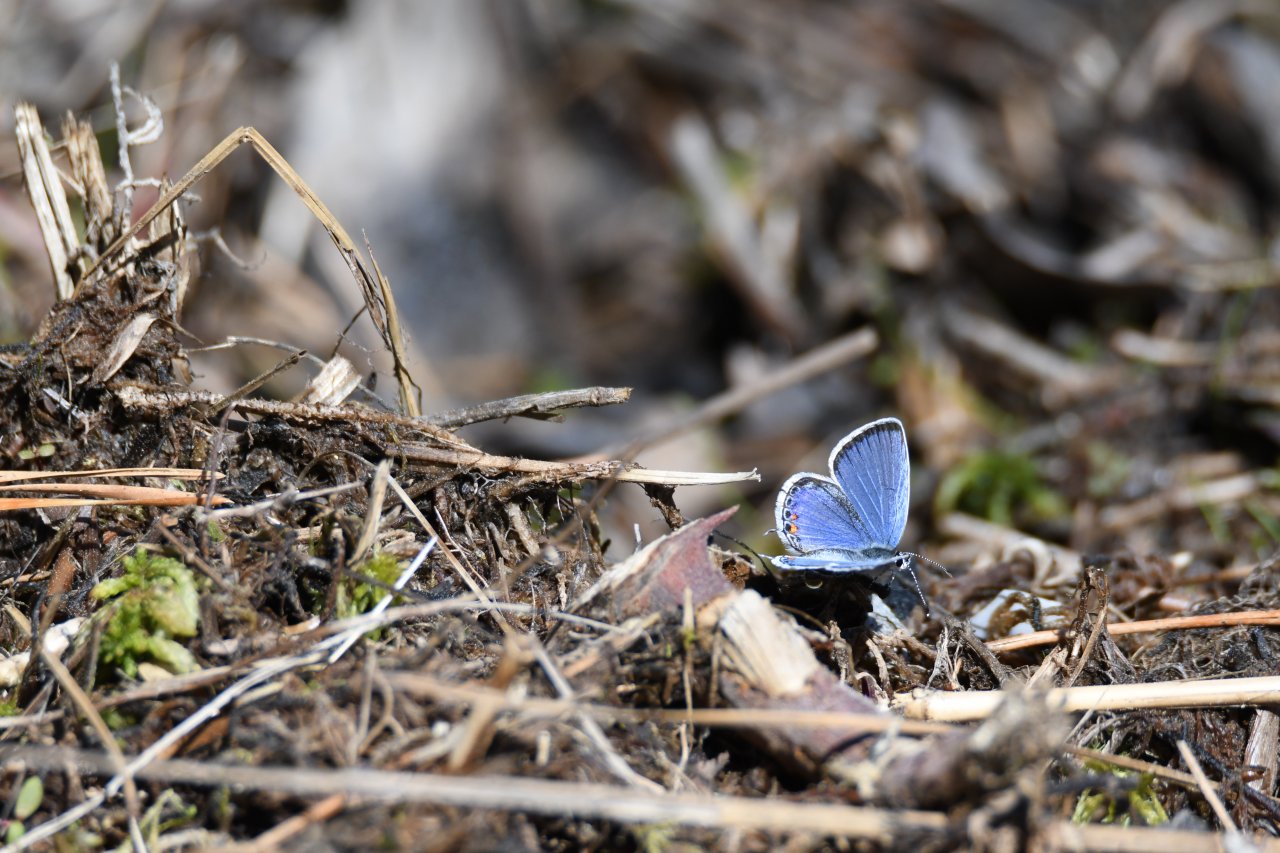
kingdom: Animalia
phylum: Arthropoda
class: Insecta
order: Lepidoptera
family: Lycaenidae
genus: Elkalyce
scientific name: Elkalyce comyntas
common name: Eastern Tailed-Blue
